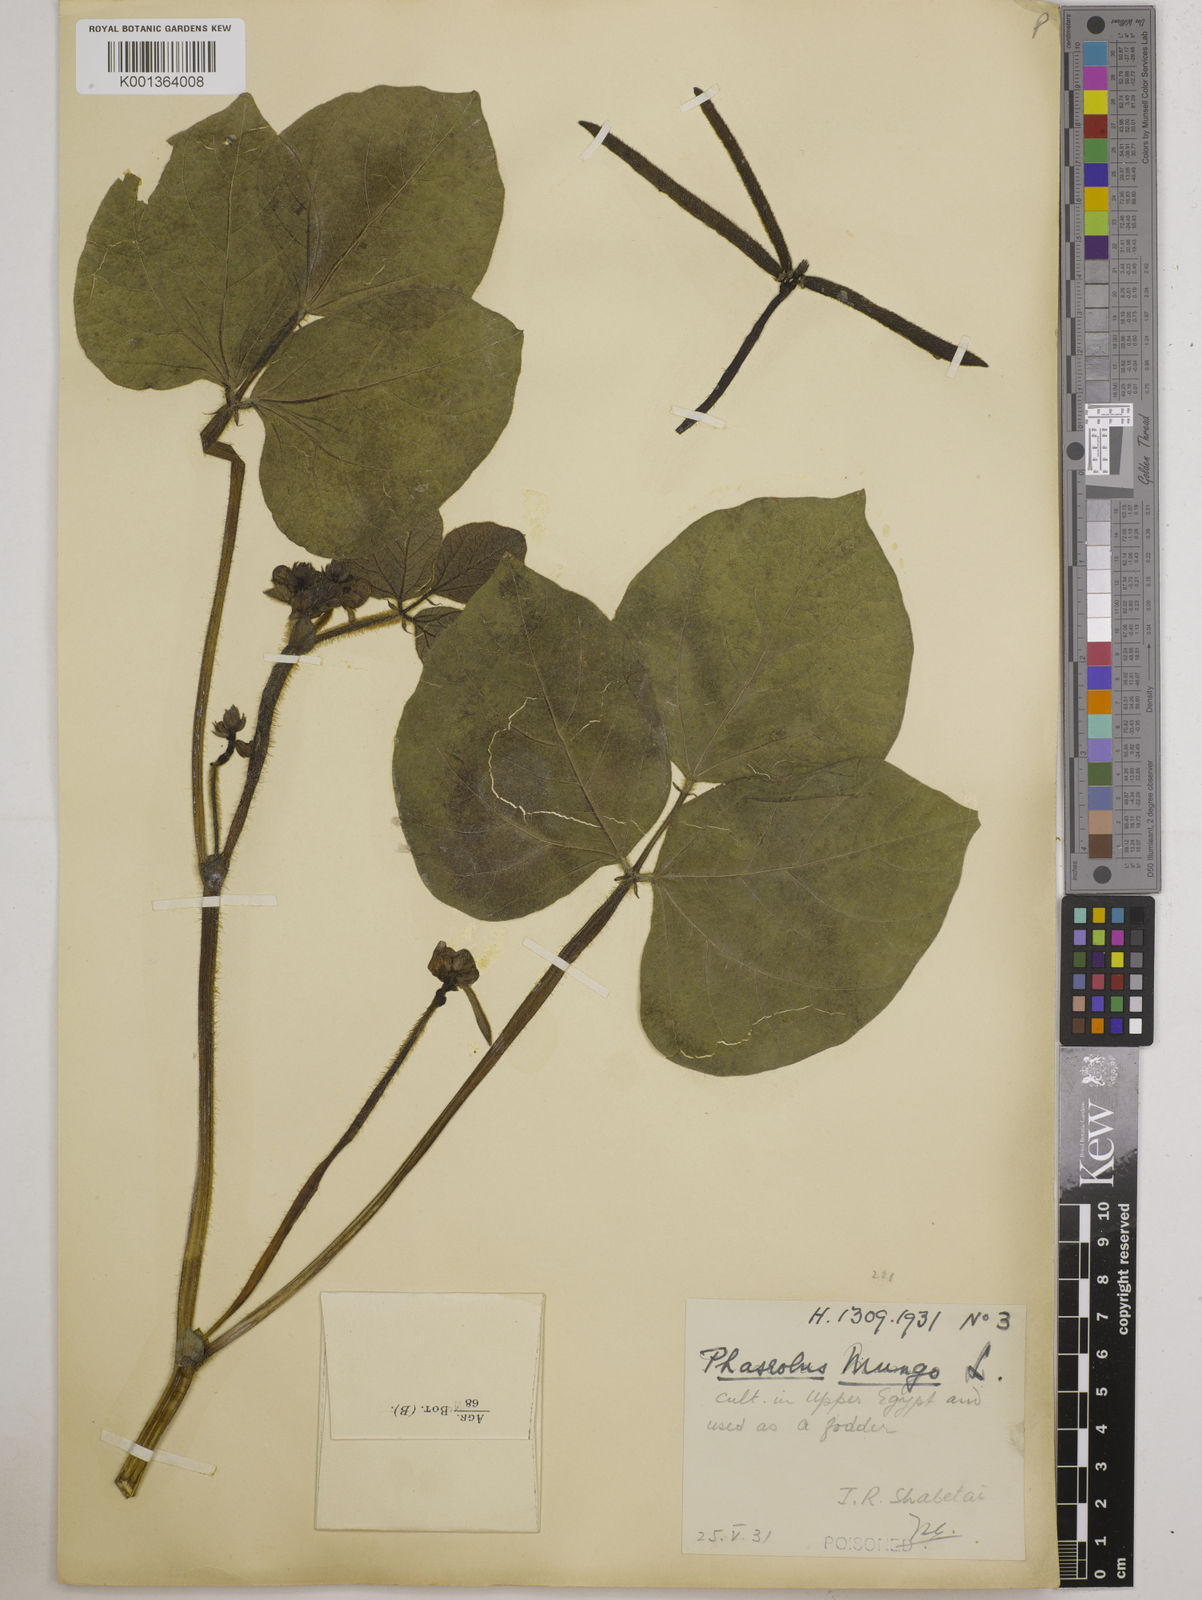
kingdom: Plantae
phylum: Tracheophyta
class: Magnoliopsida
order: Fabales
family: Fabaceae
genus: Vigna
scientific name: Vigna radiata
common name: Mung-bean
